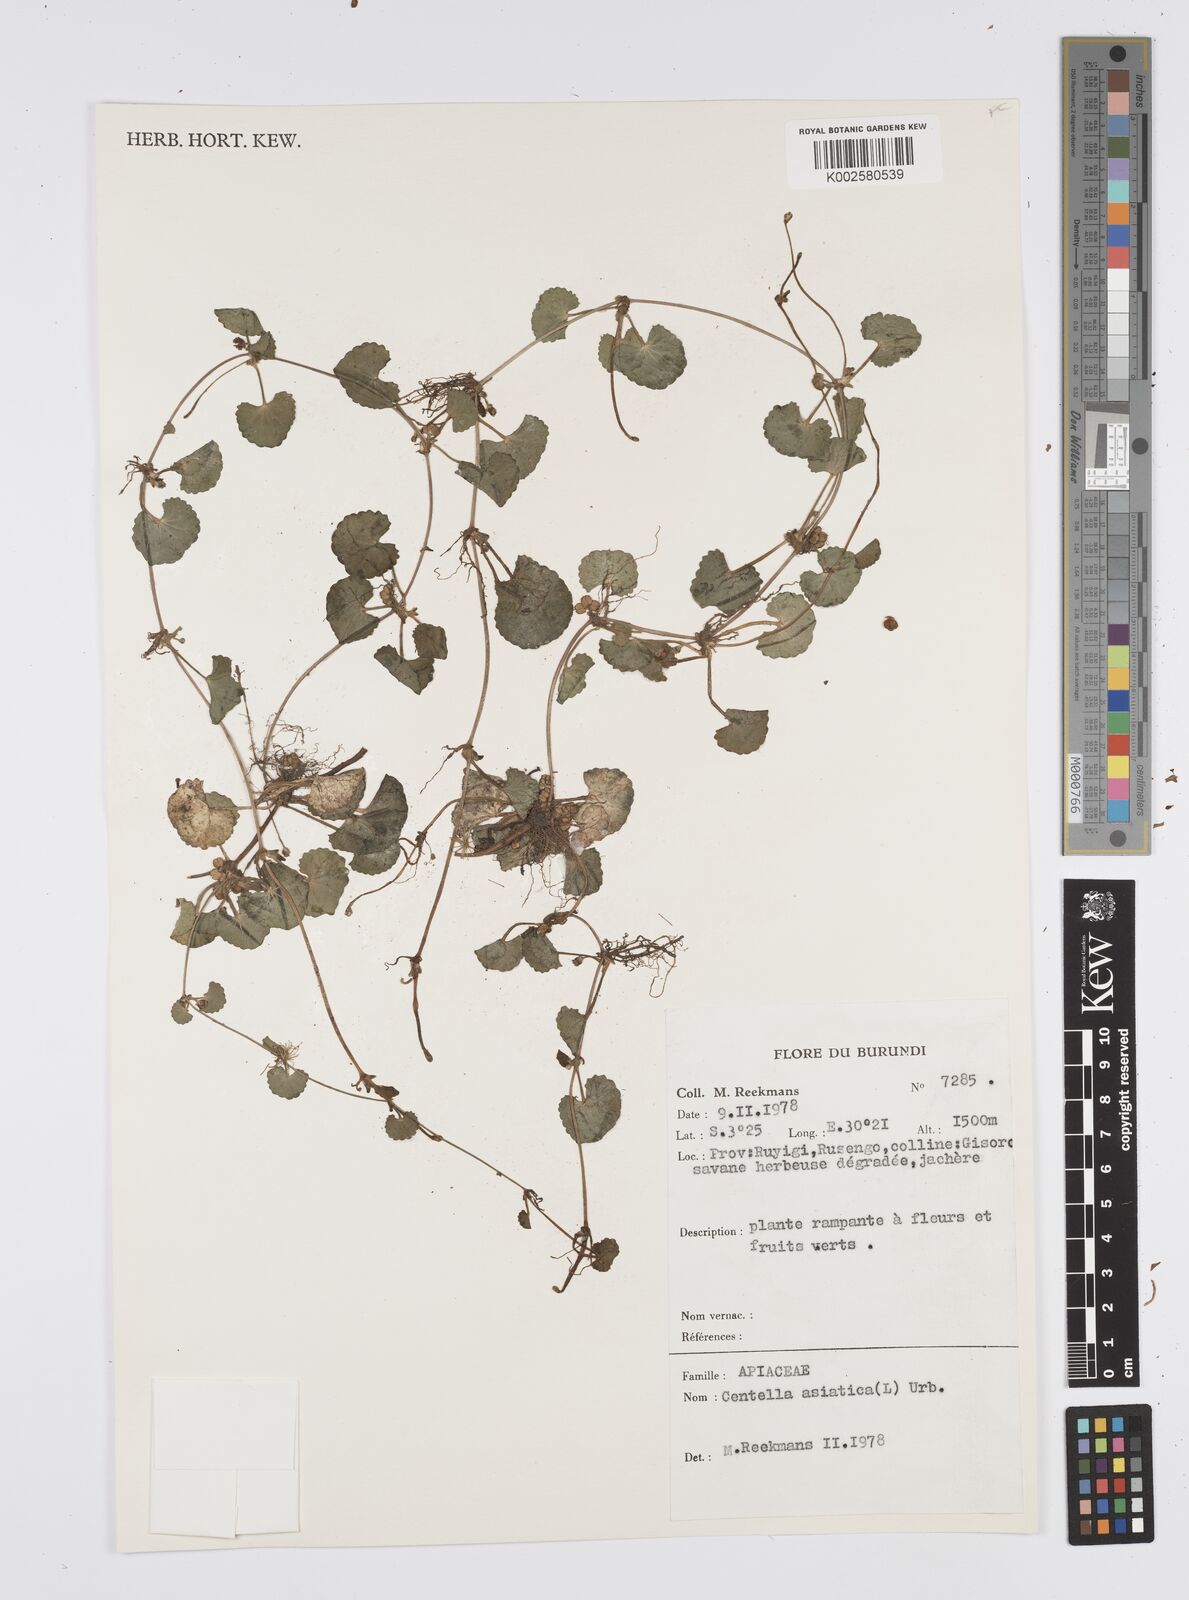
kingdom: Plantae
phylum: Tracheophyta
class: Magnoliopsida
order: Apiales
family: Apiaceae
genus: Centella
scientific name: Centella asiatica
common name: Spadeleaf
